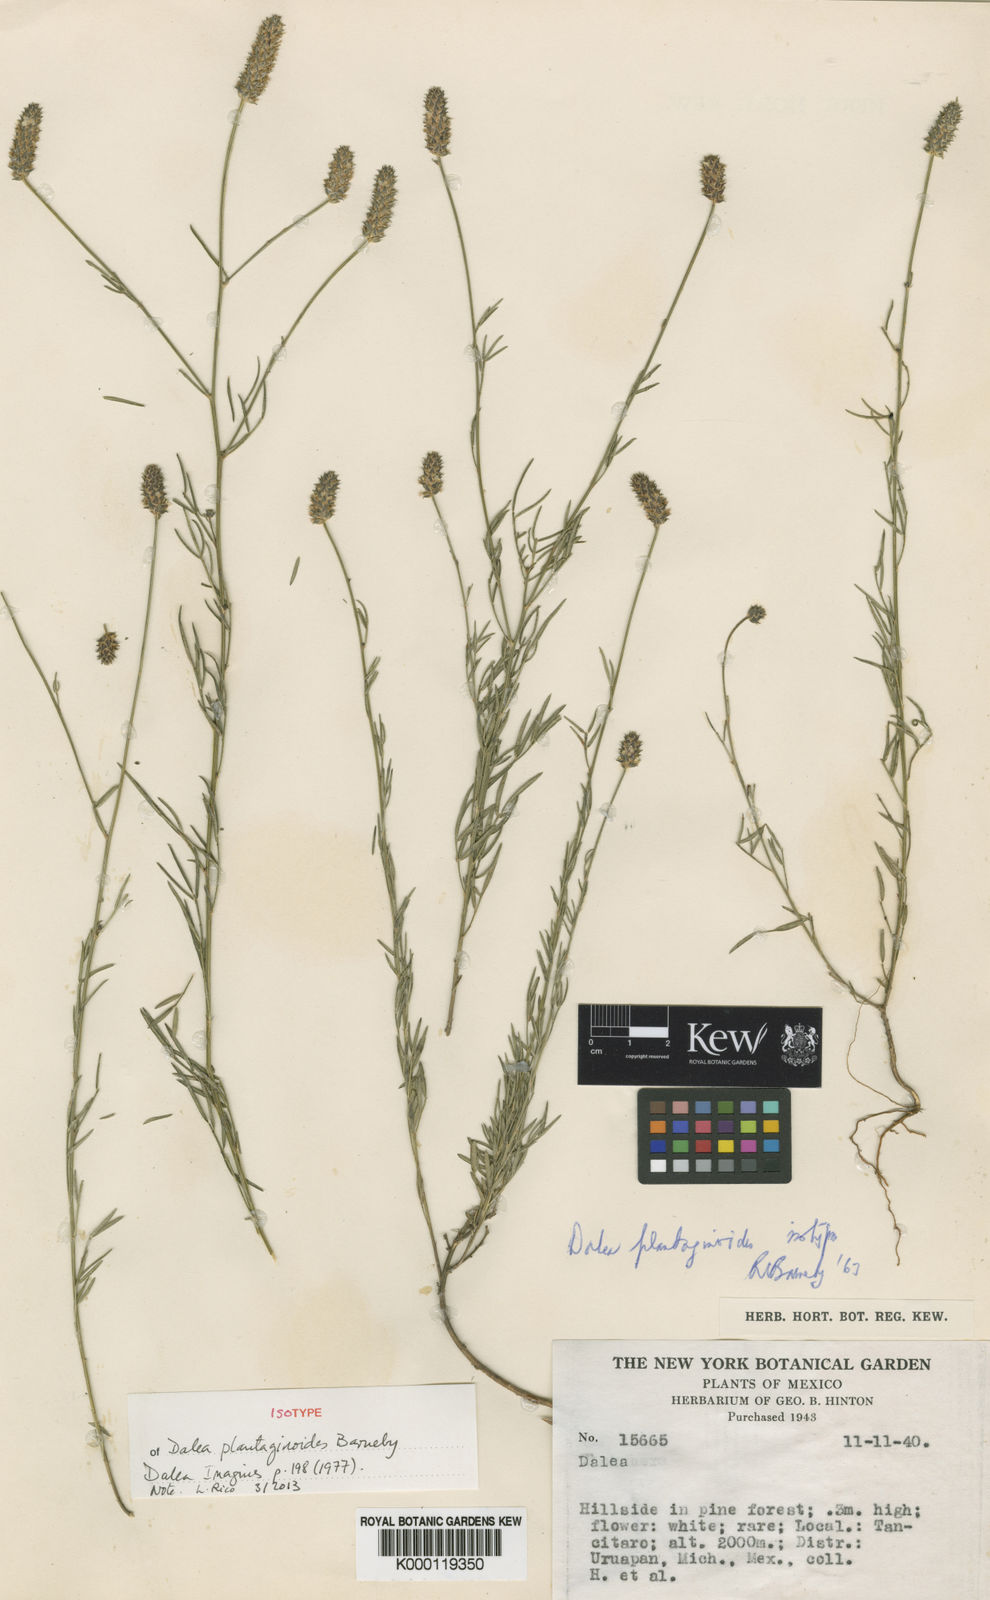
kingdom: Plantae
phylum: Tracheophyta
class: Magnoliopsida
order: Fabales
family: Fabaceae
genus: Dalea
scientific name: Dalea plantaginoides
